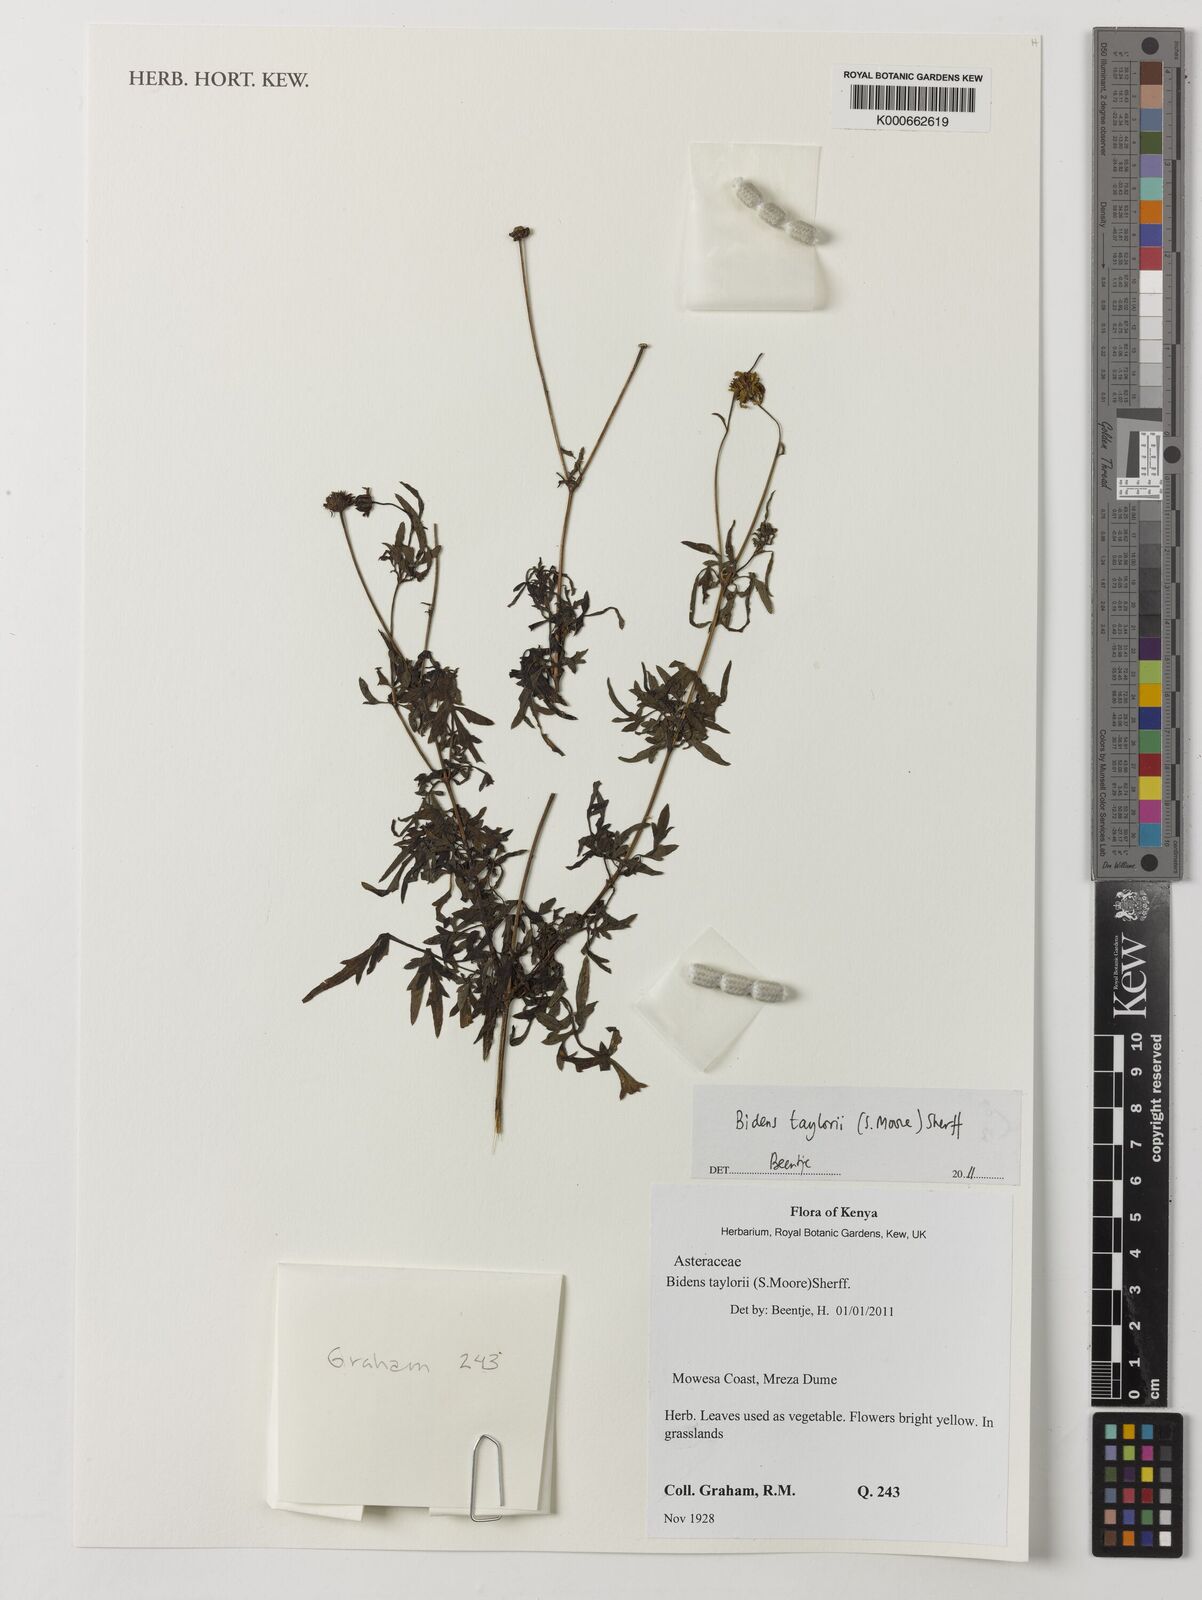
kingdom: Plantae
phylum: Tracheophyta
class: Magnoliopsida
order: Asterales
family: Asteraceae
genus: Bidens
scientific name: Bidens steppia
